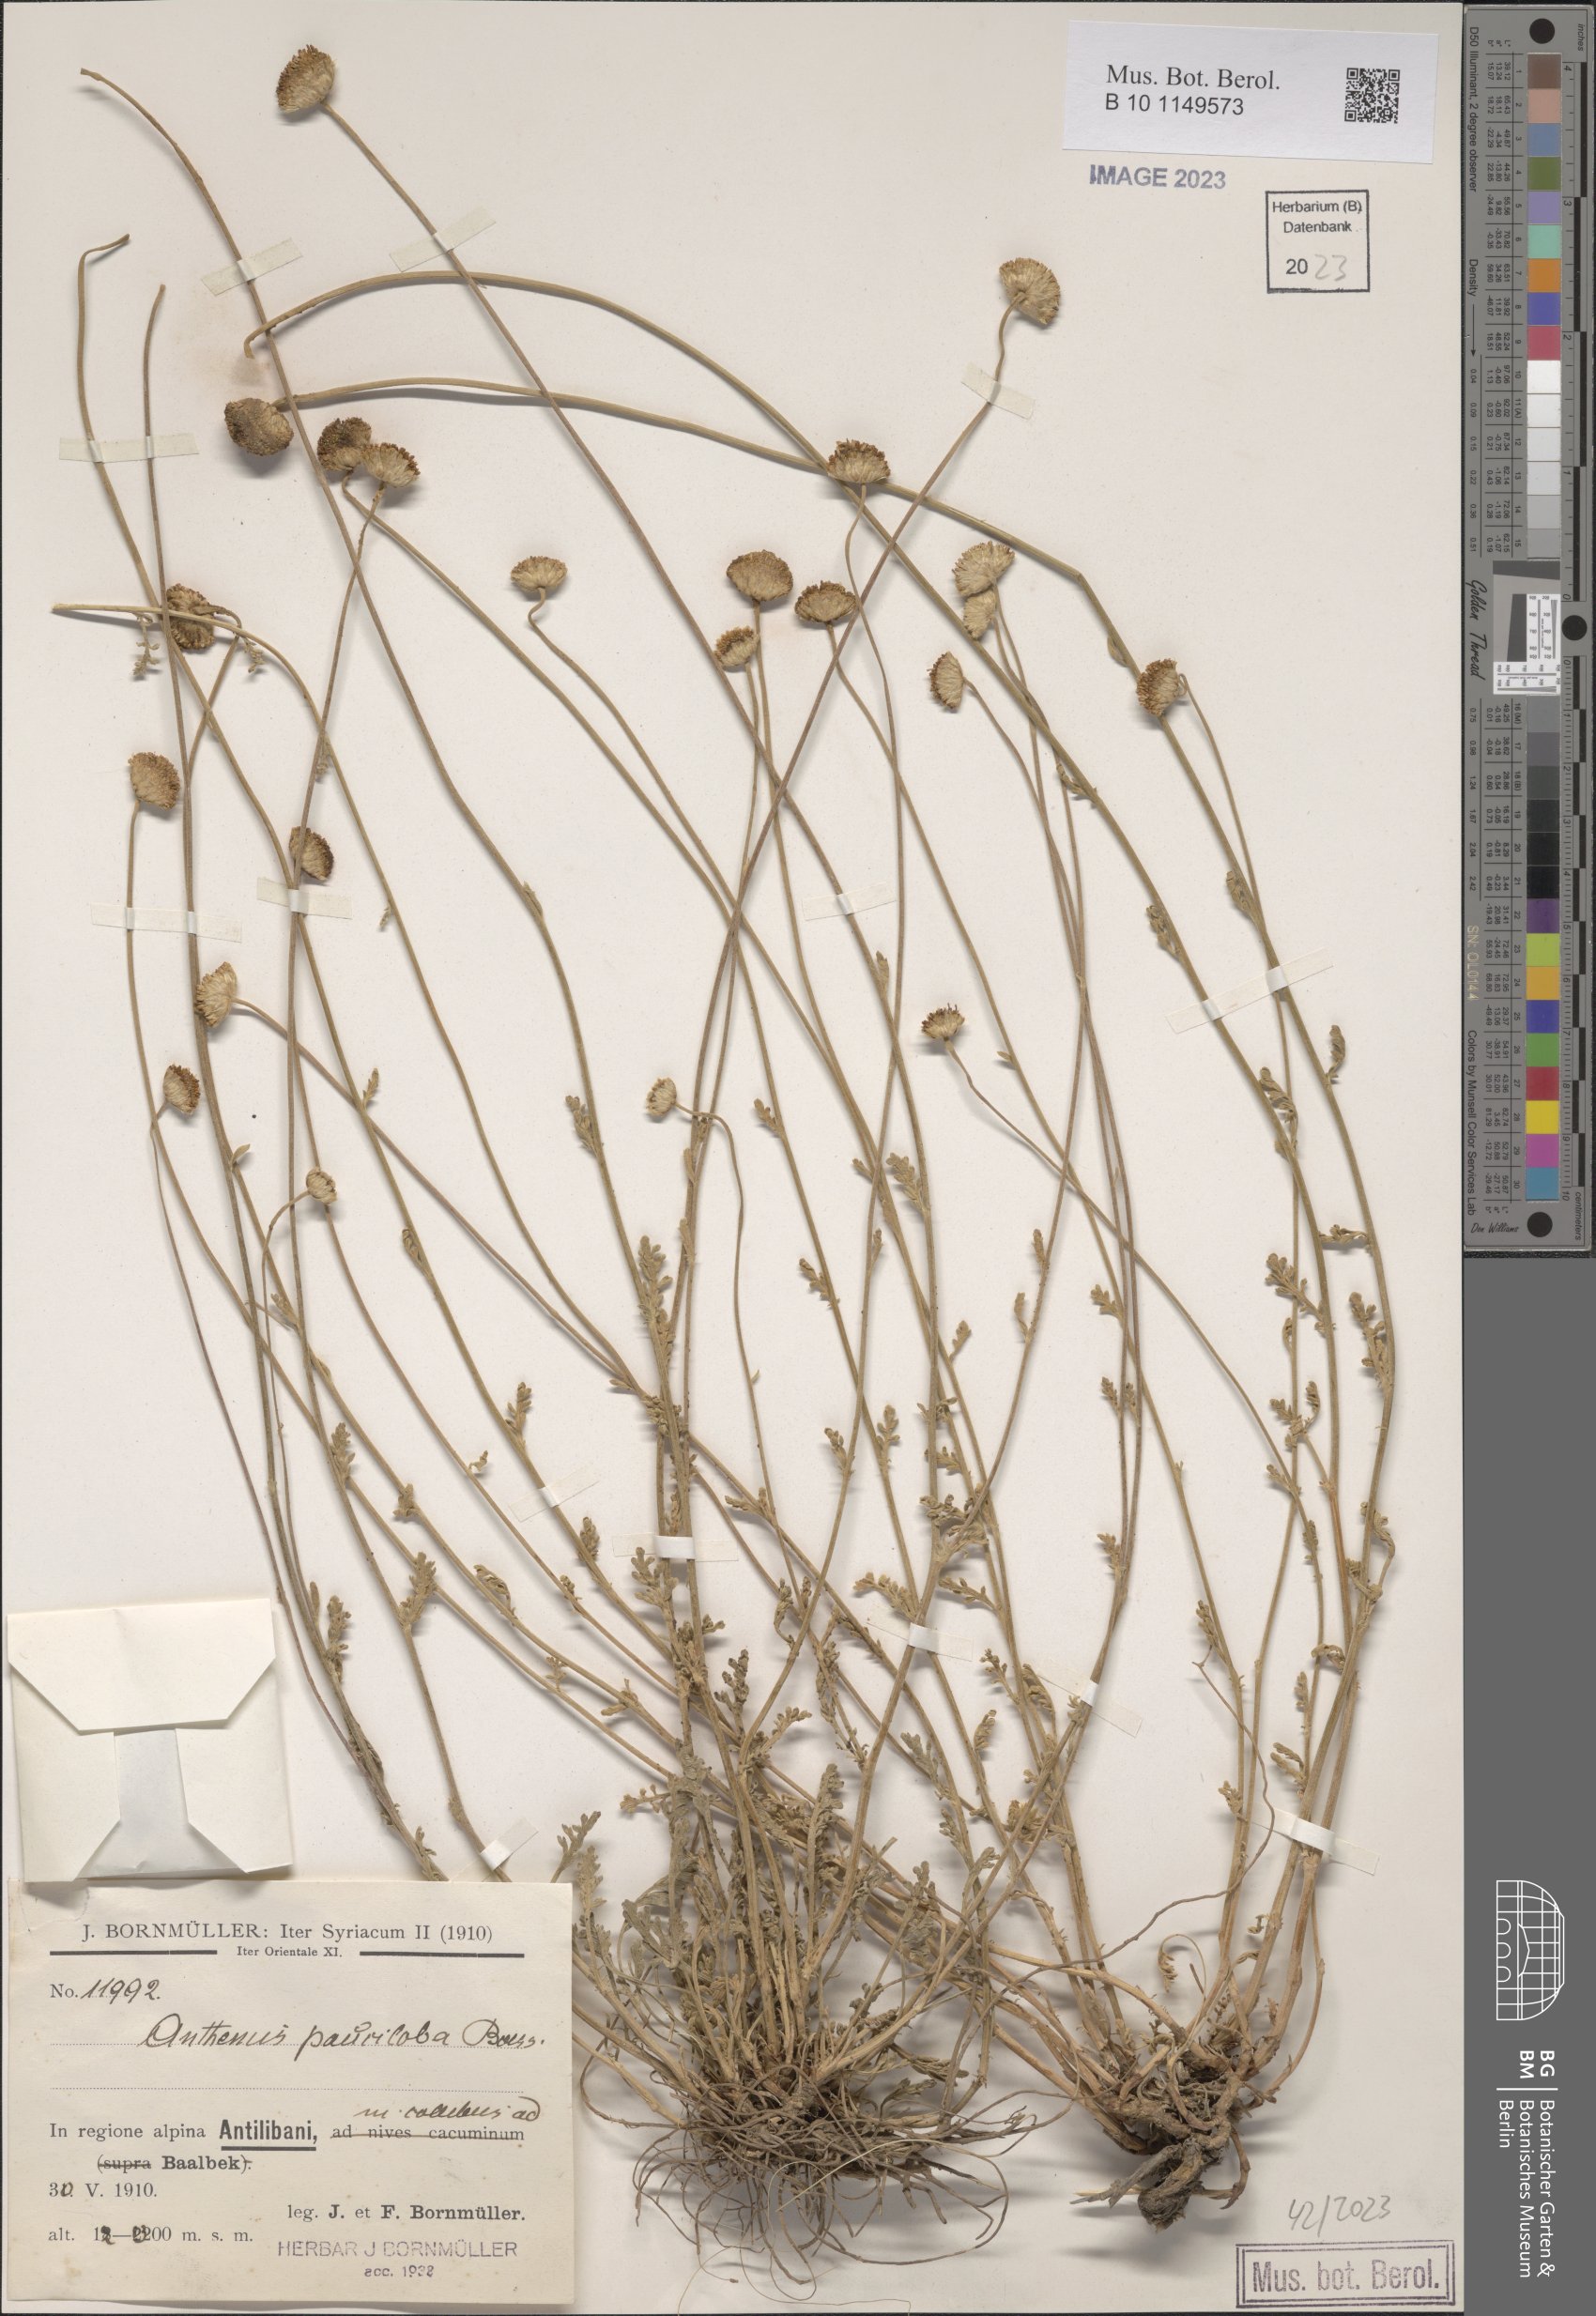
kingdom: Plantae
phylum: Tracheophyta
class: Magnoliopsida
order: Asterales
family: Asteraceae
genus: Anthemis
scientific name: Anthemis pauciloba
